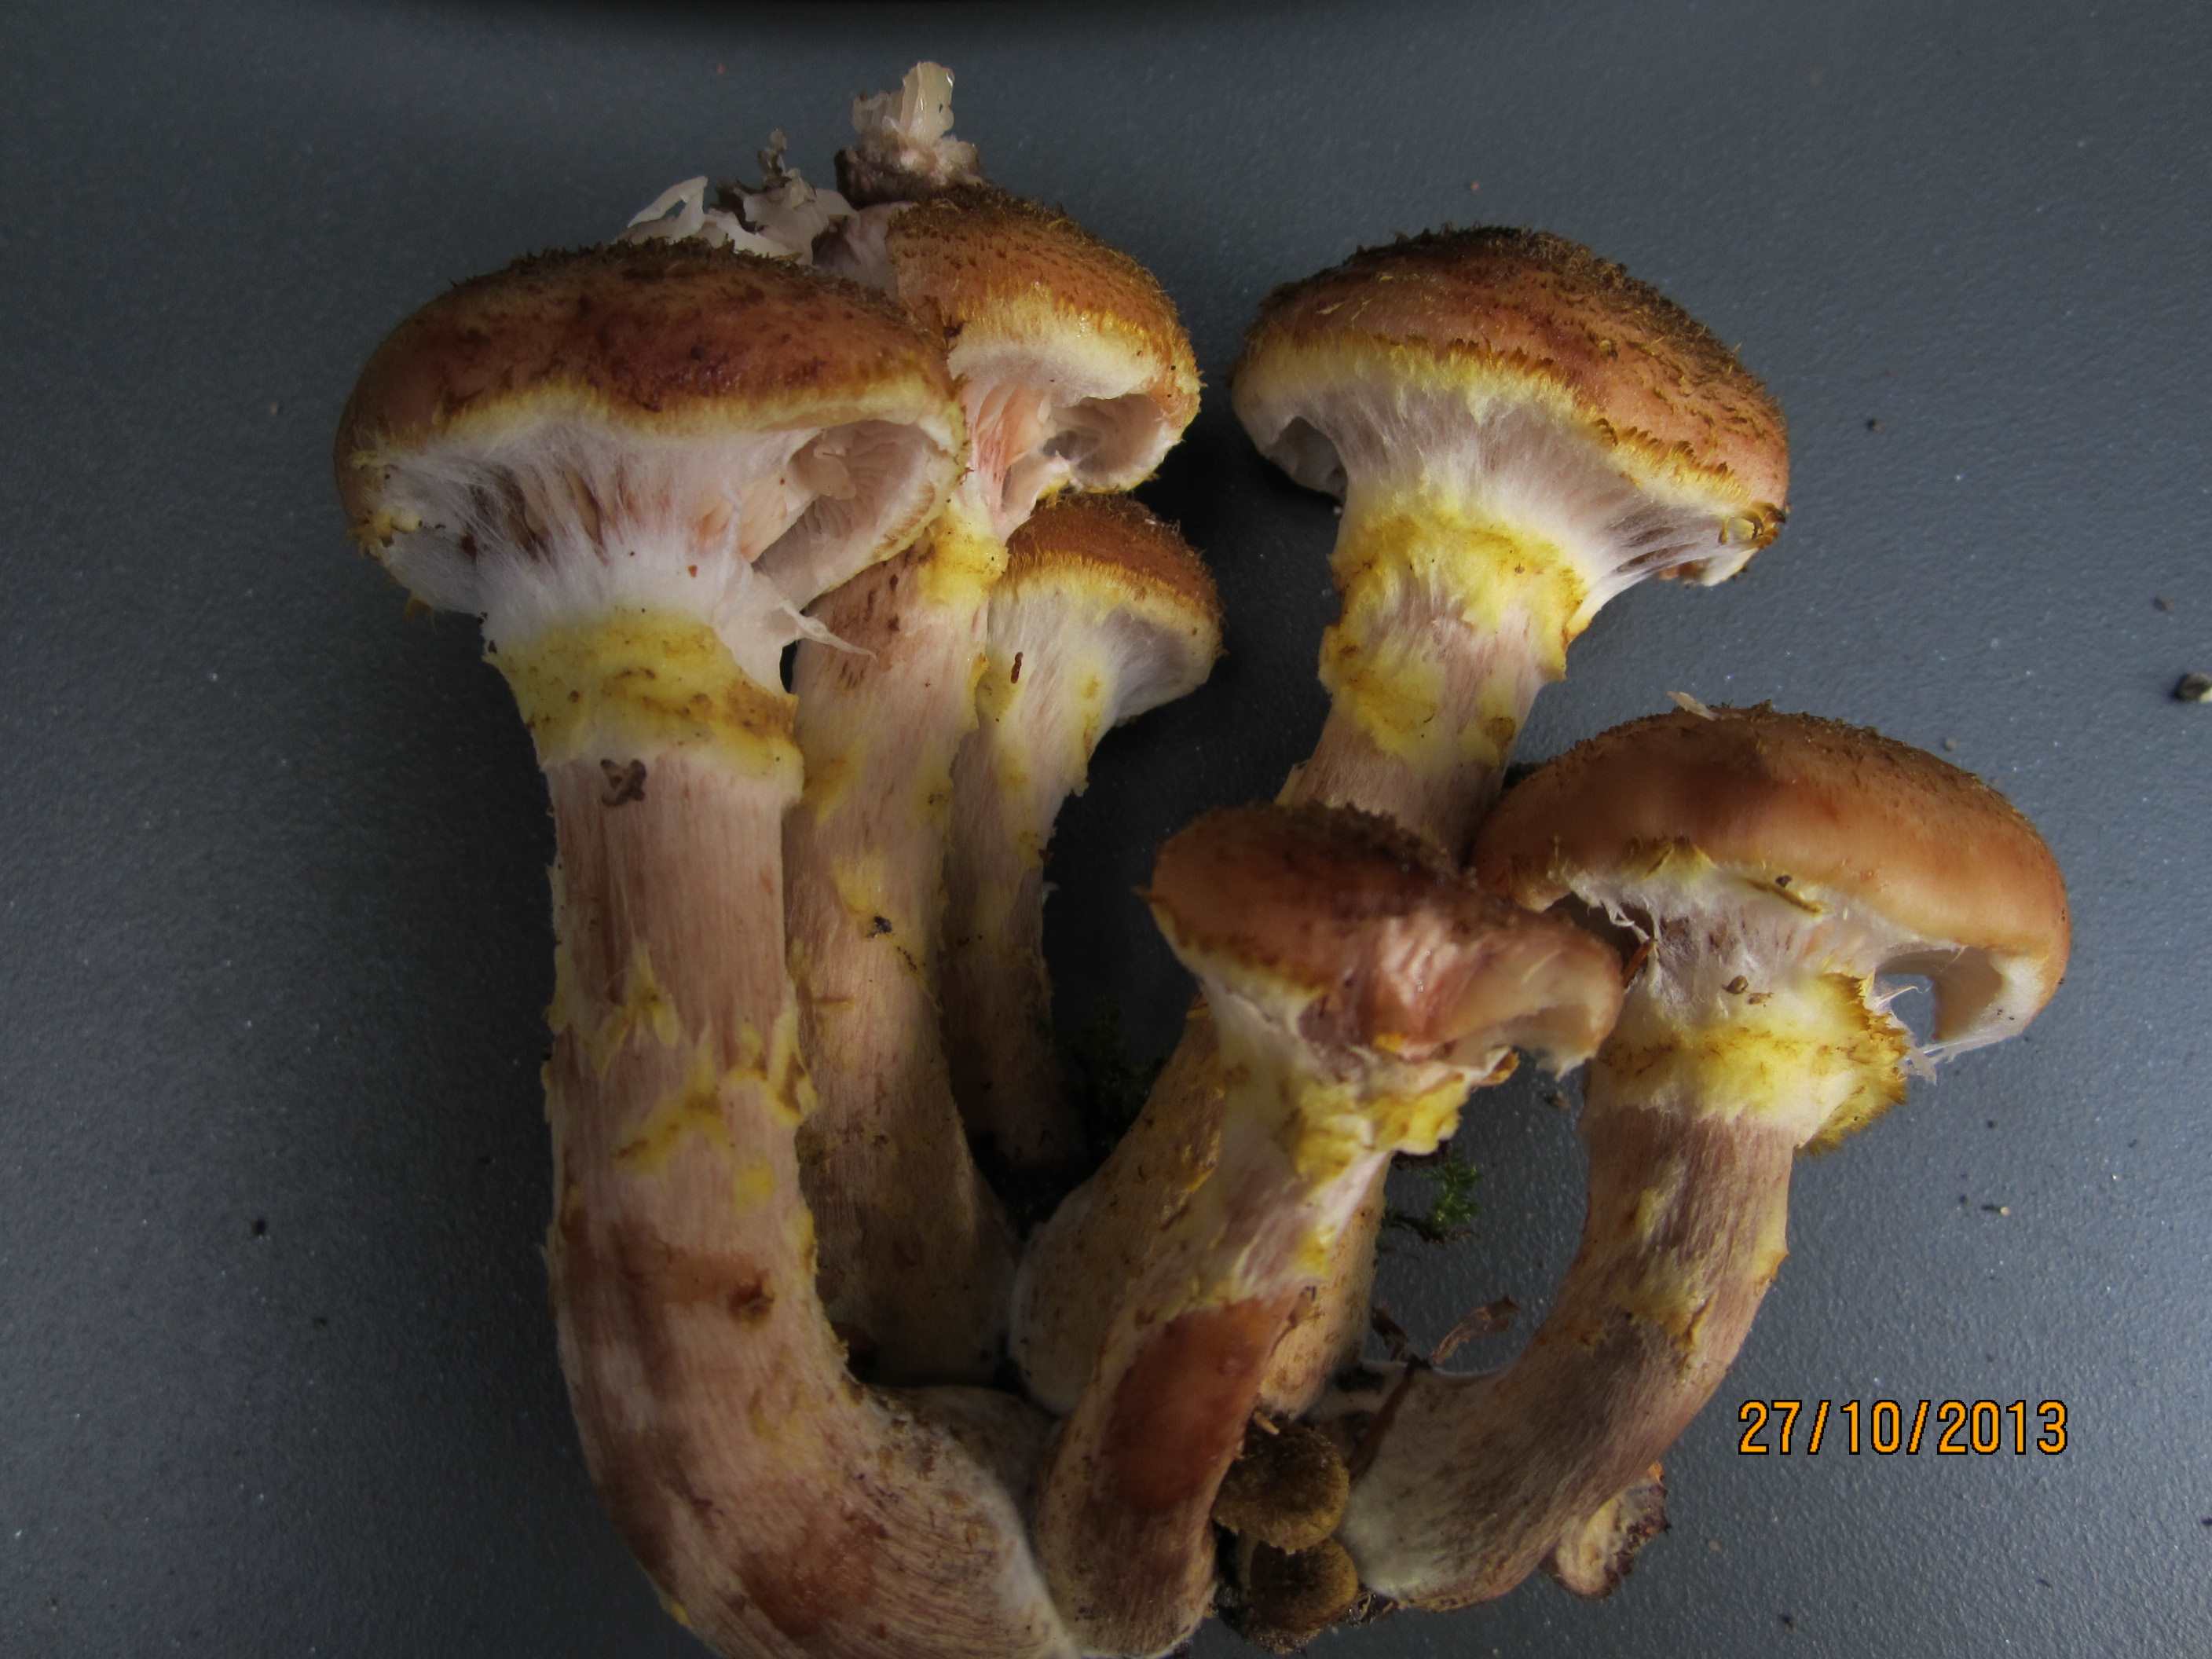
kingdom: Fungi
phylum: Basidiomycota
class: Agaricomycetes
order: Agaricales
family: Physalacriaceae
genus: Armillaria
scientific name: Armillaria lutea
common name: køllestokket honningsvamp
